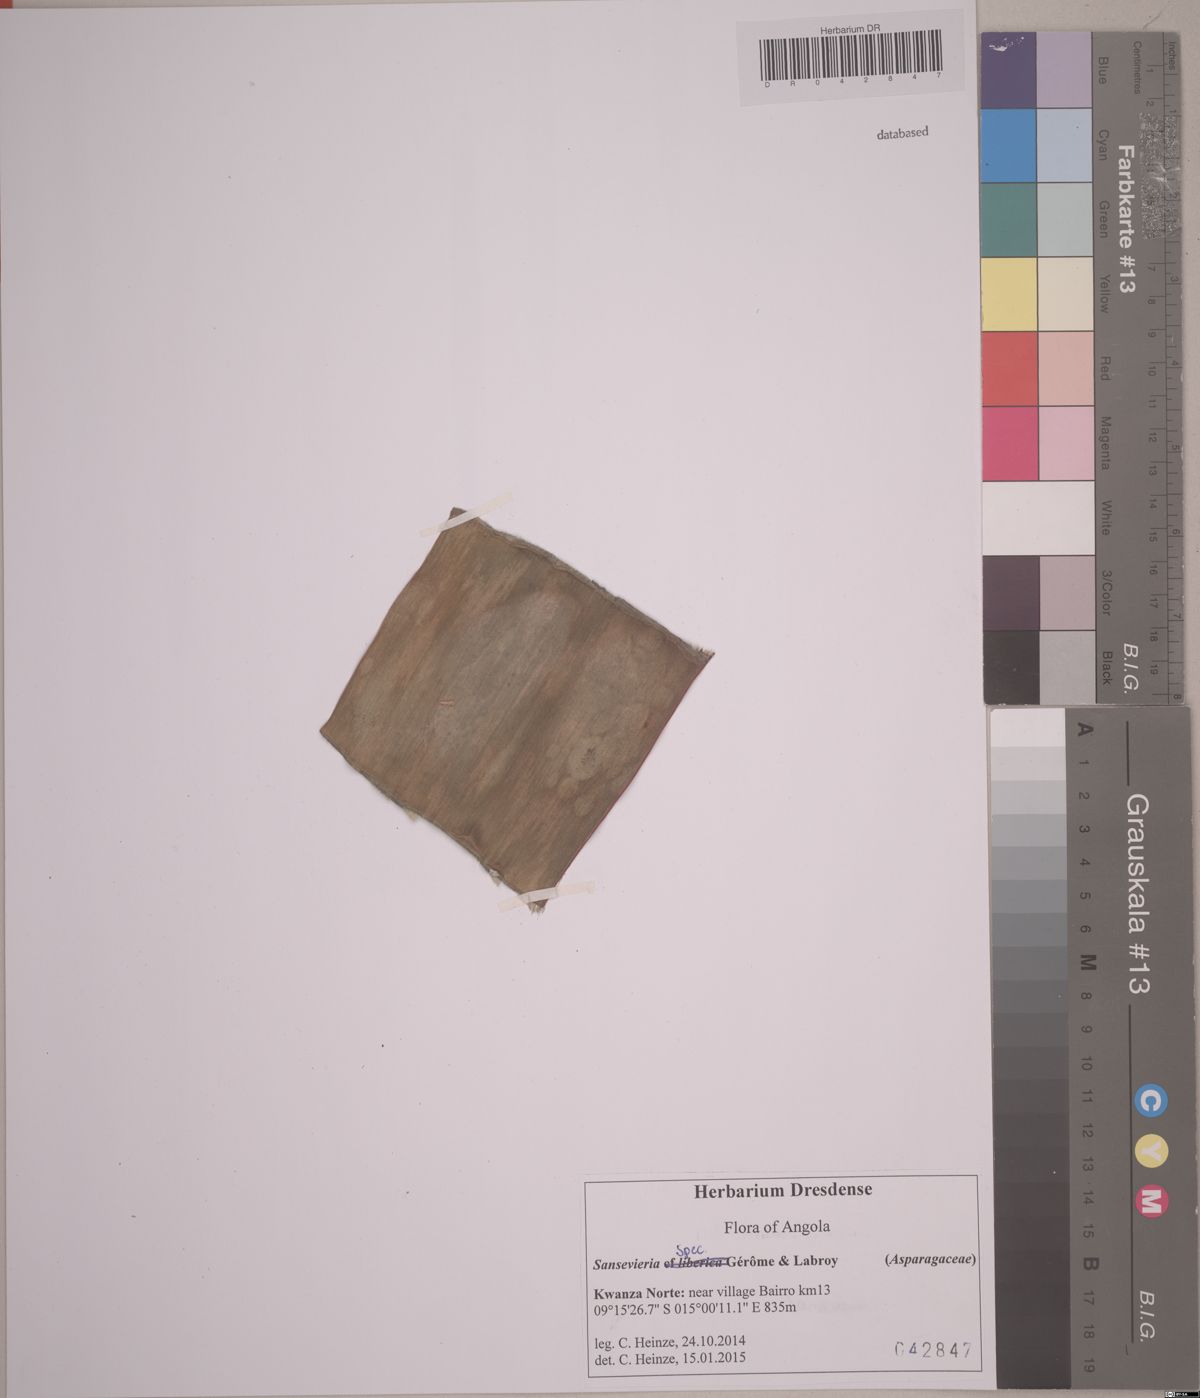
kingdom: Plantae
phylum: Tracheophyta
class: Liliopsida
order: Asparagales
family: Asparagaceae
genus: Dracaena
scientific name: Dracaena
